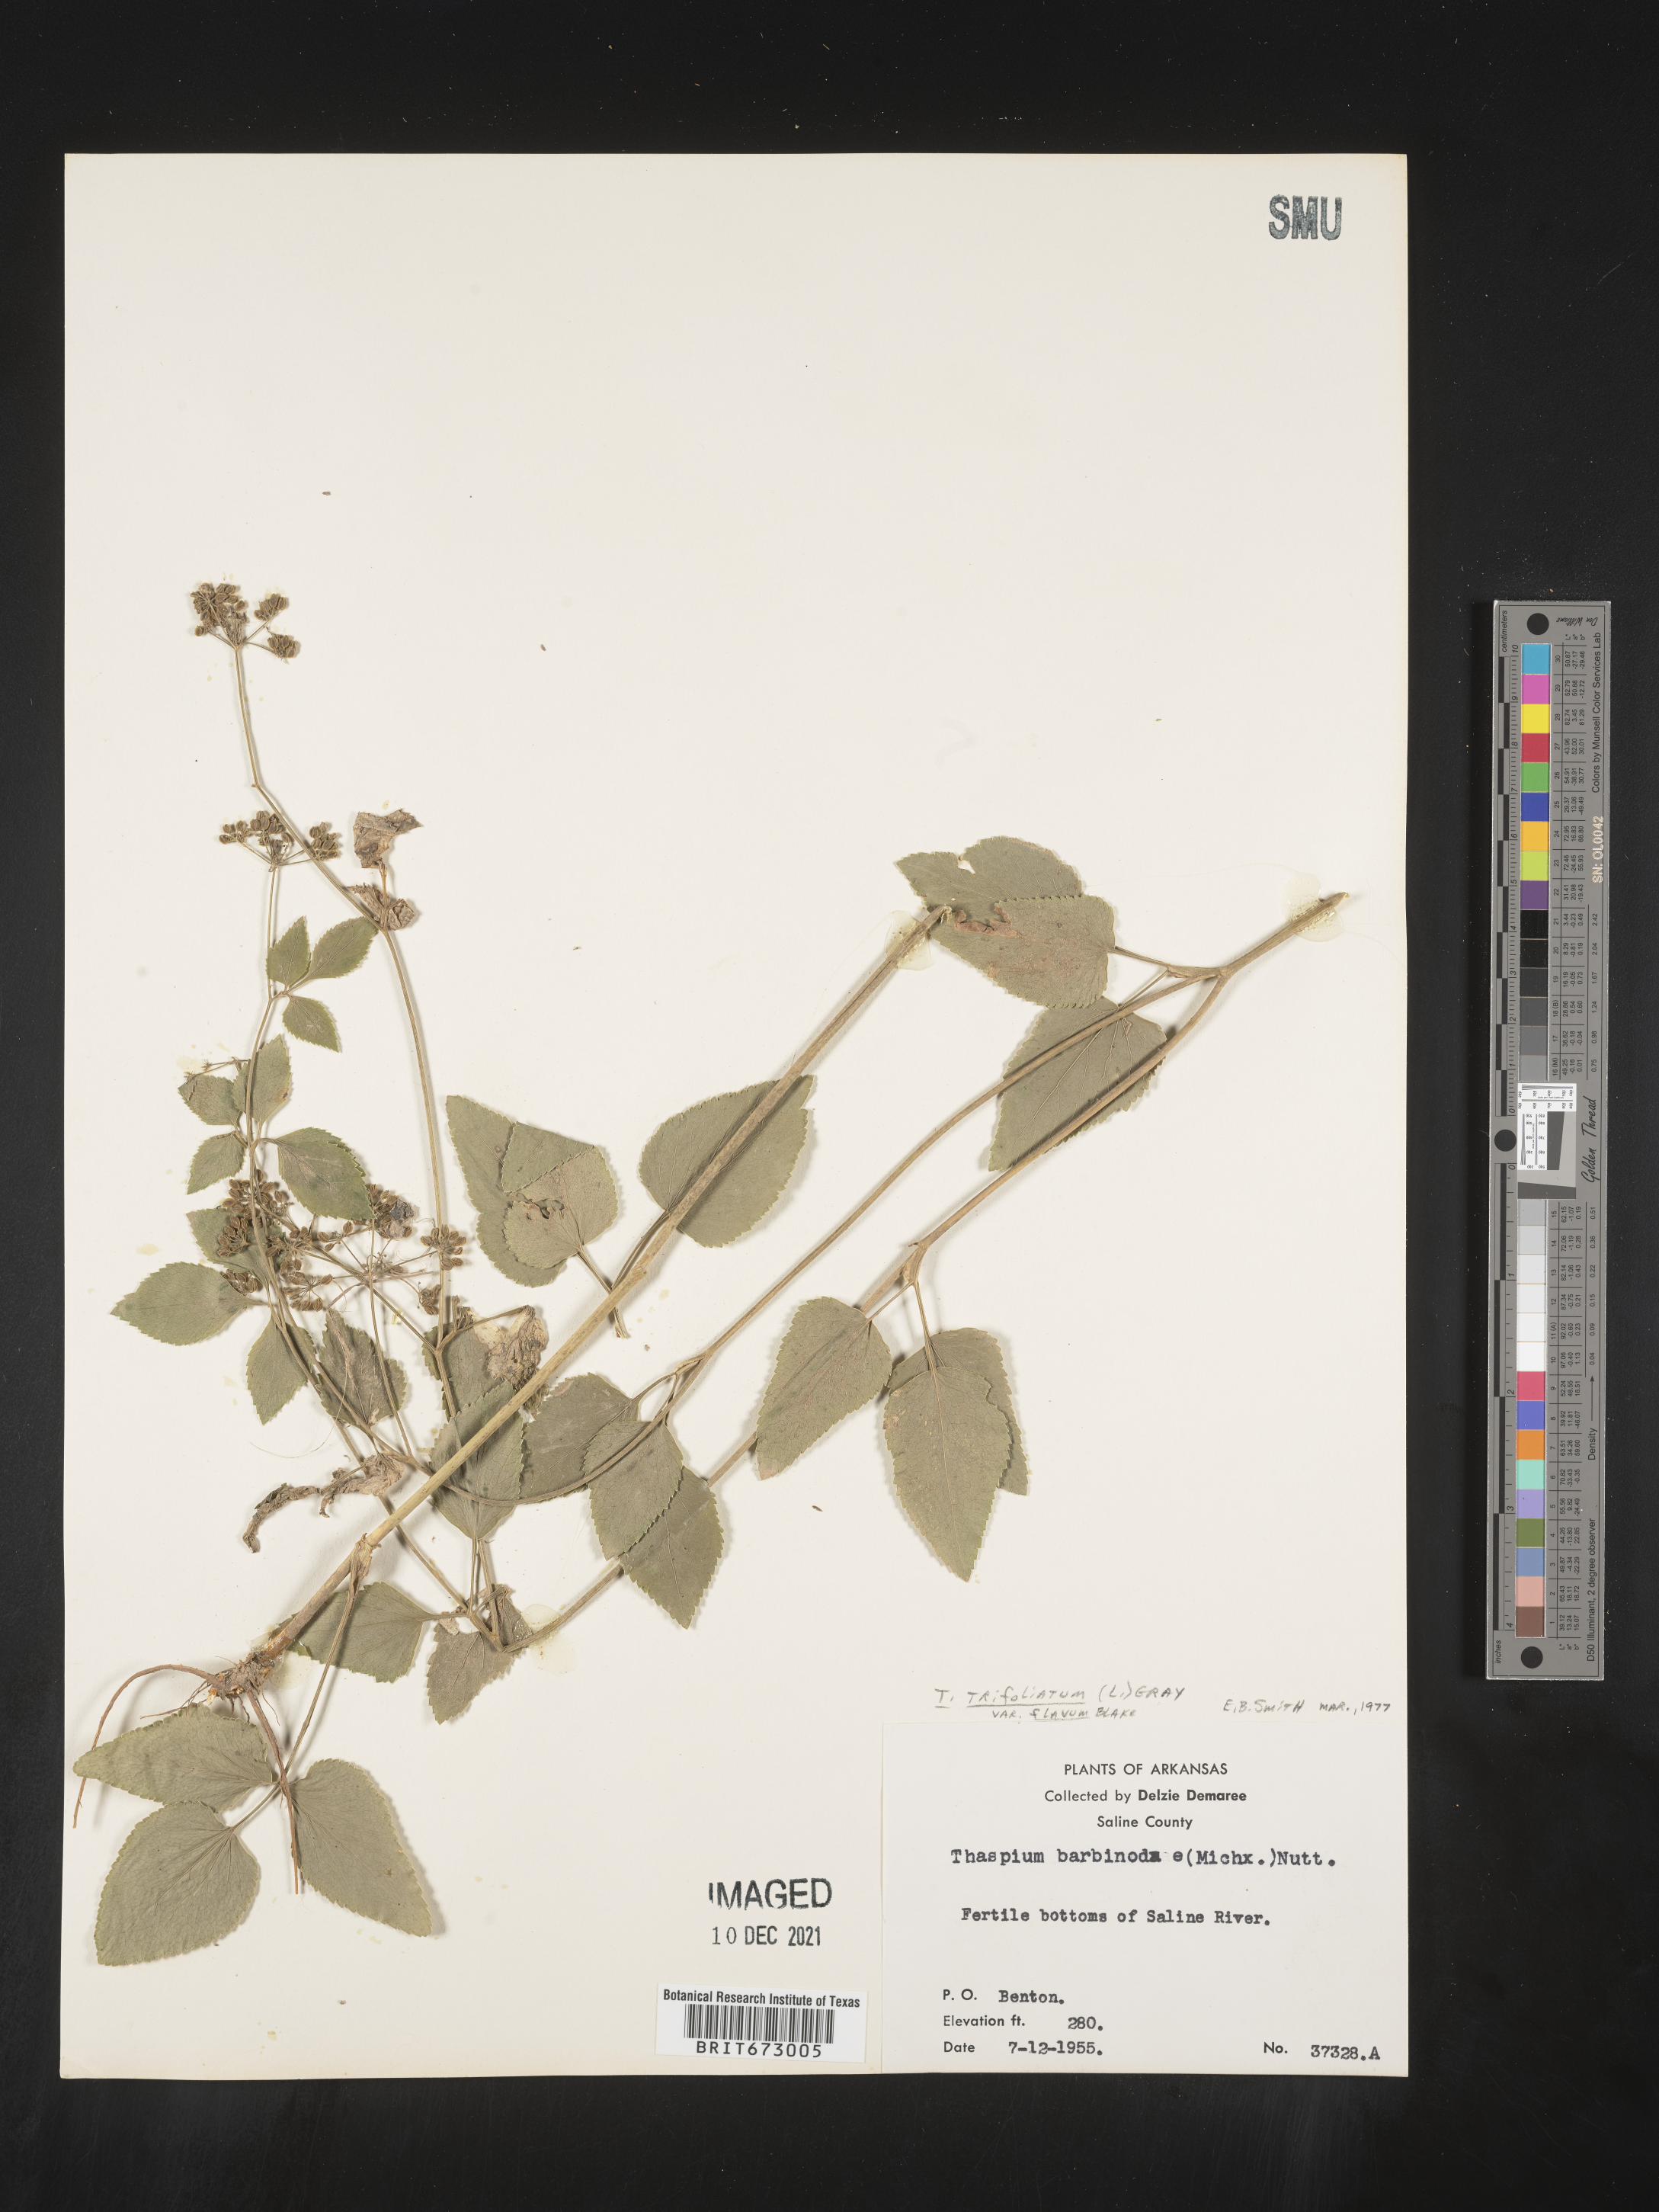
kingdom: Plantae
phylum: Tracheophyta
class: Magnoliopsida
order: Apiales
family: Apiaceae
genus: Thaspium
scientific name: Thaspium
